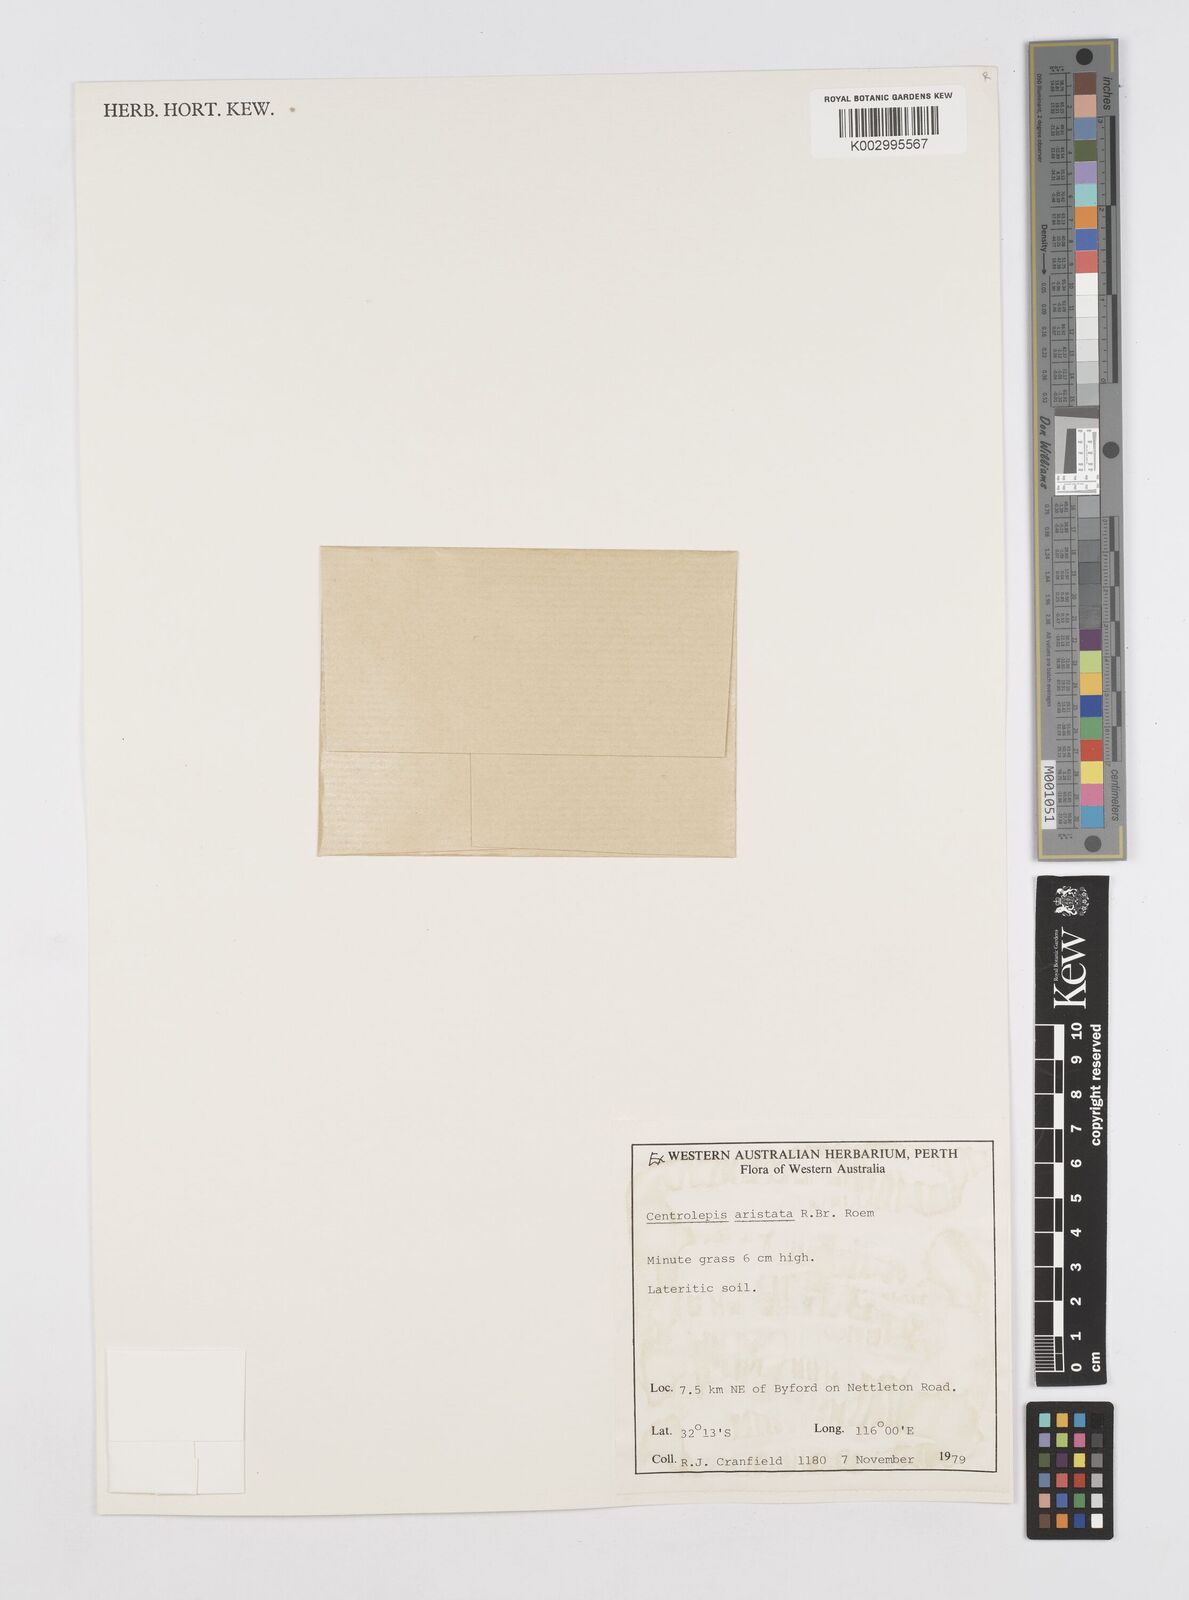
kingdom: Plantae
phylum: Tracheophyta
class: Liliopsida
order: Poales
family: Restionaceae
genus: Centrolepis
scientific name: Centrolepis aristata
